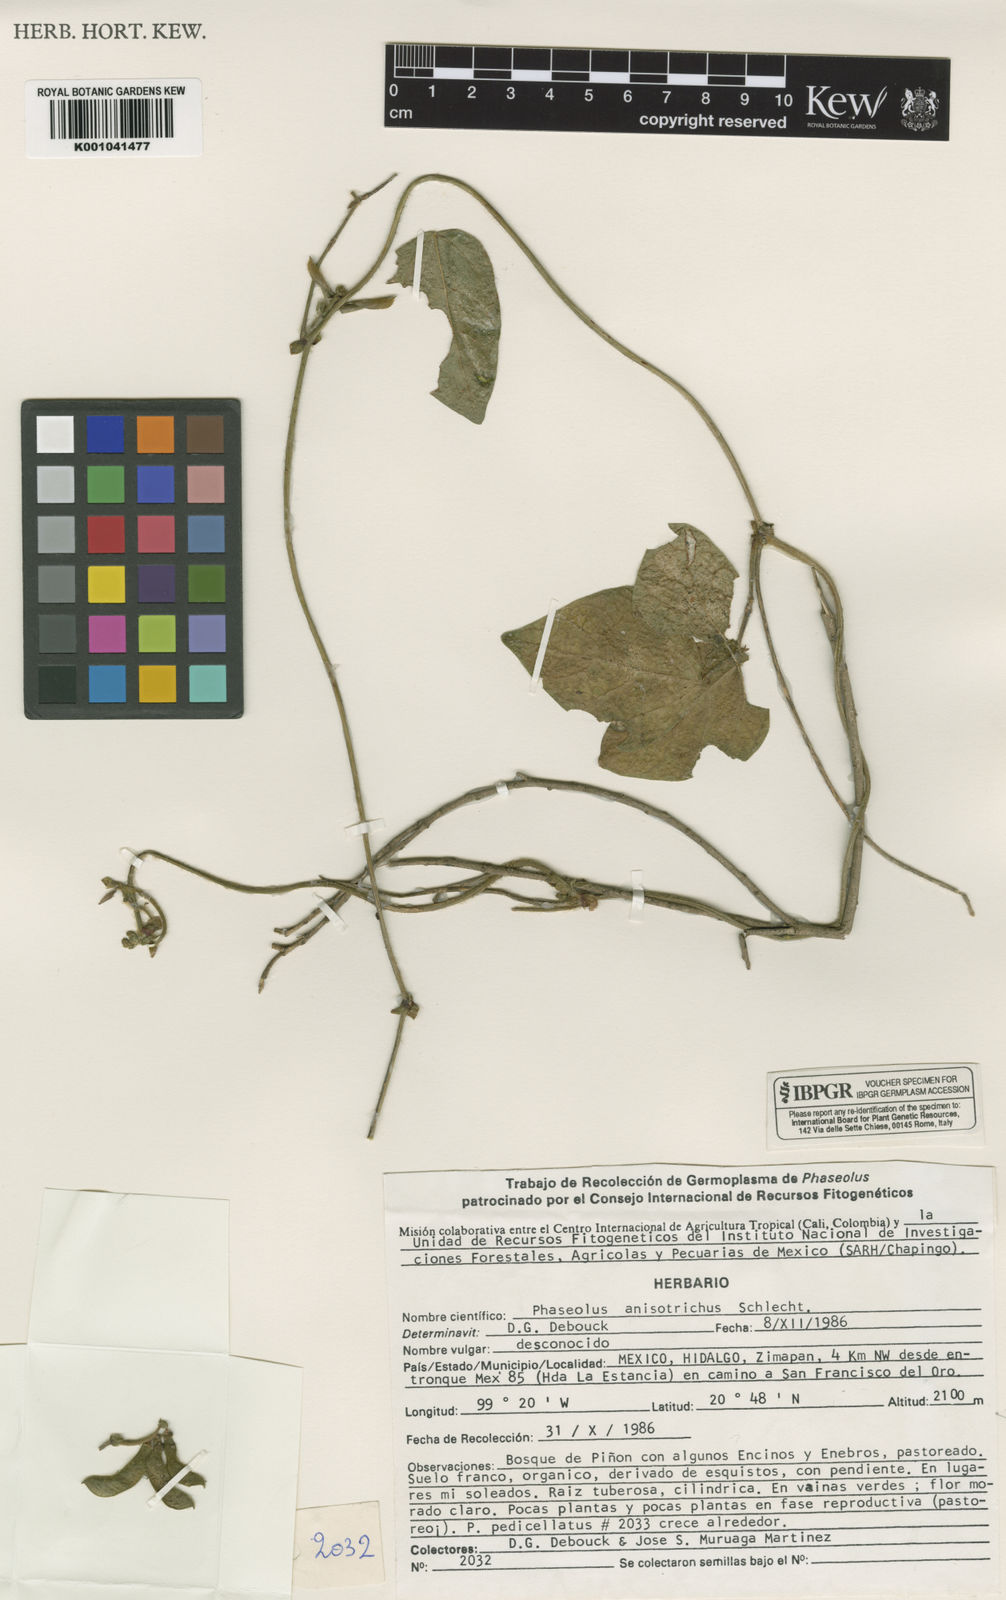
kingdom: Plantae
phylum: Tracheophyta
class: Magnoliopsida
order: Fabales
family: Fabaceae
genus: Phaseolus
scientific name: Phaseolus
